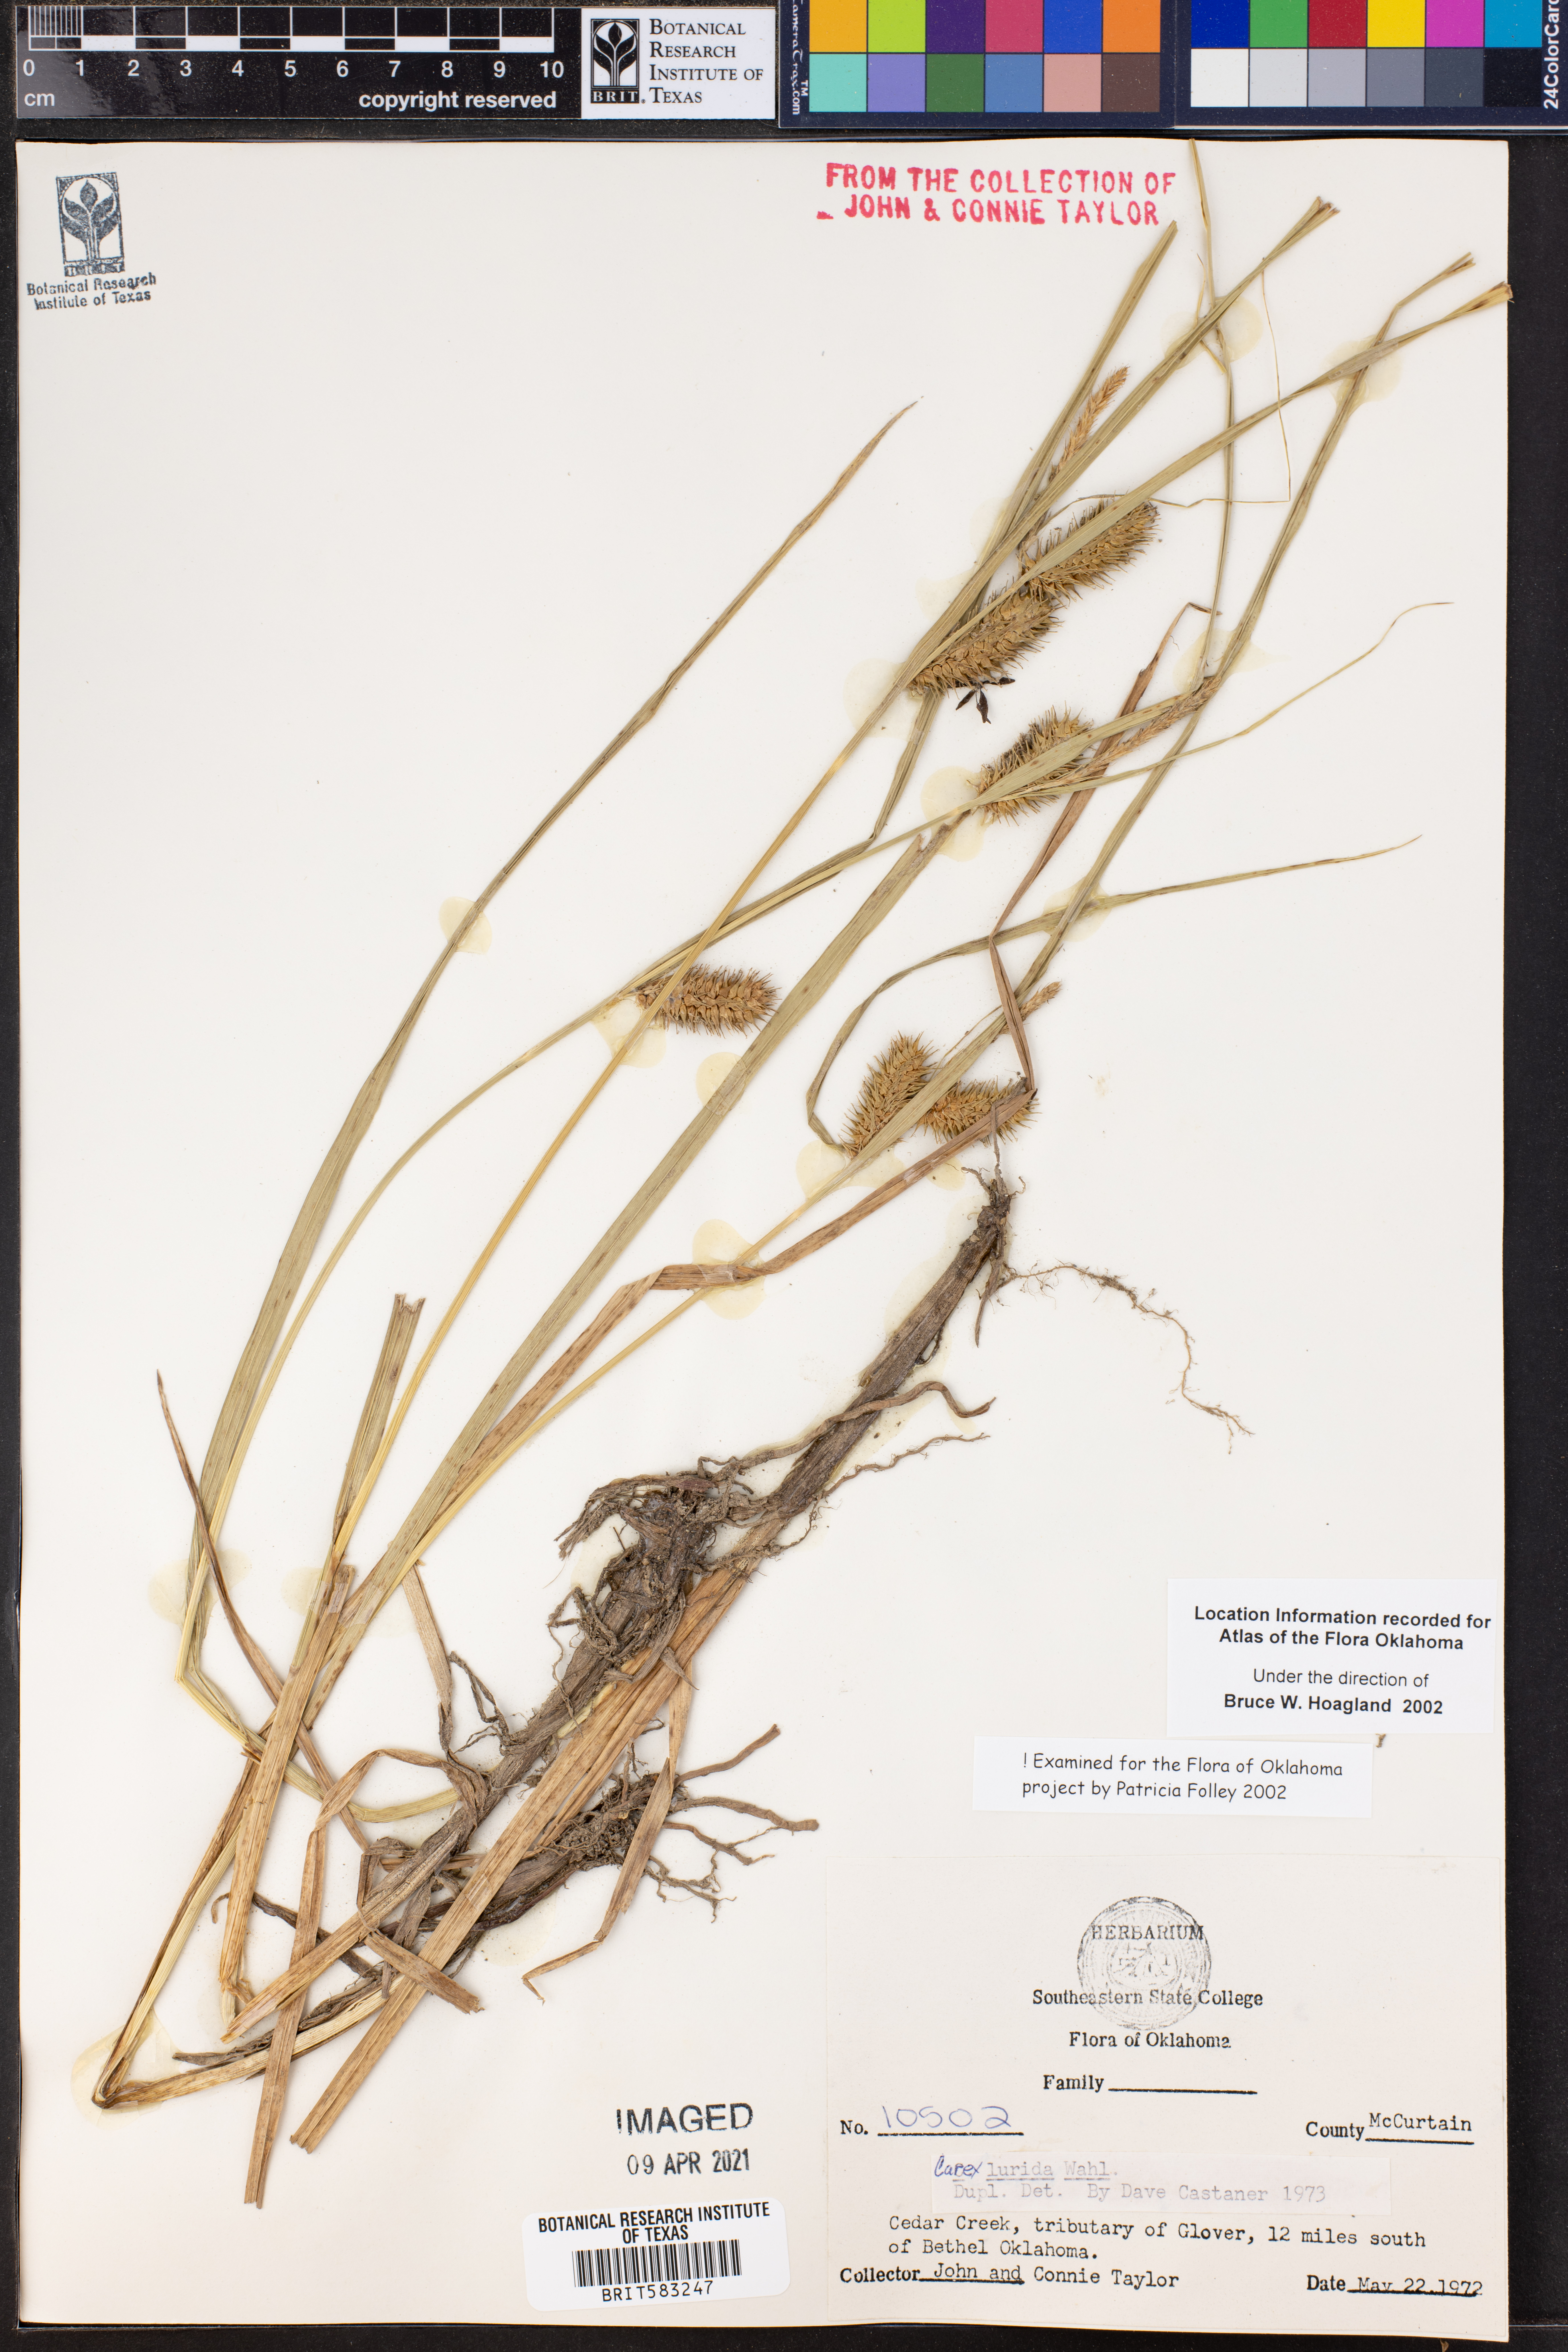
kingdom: Plantae
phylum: Tracheophyta
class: Liliopsida
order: Poales
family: Cyperaceae
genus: Carex
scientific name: Carex lurida
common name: Sallow sedge
